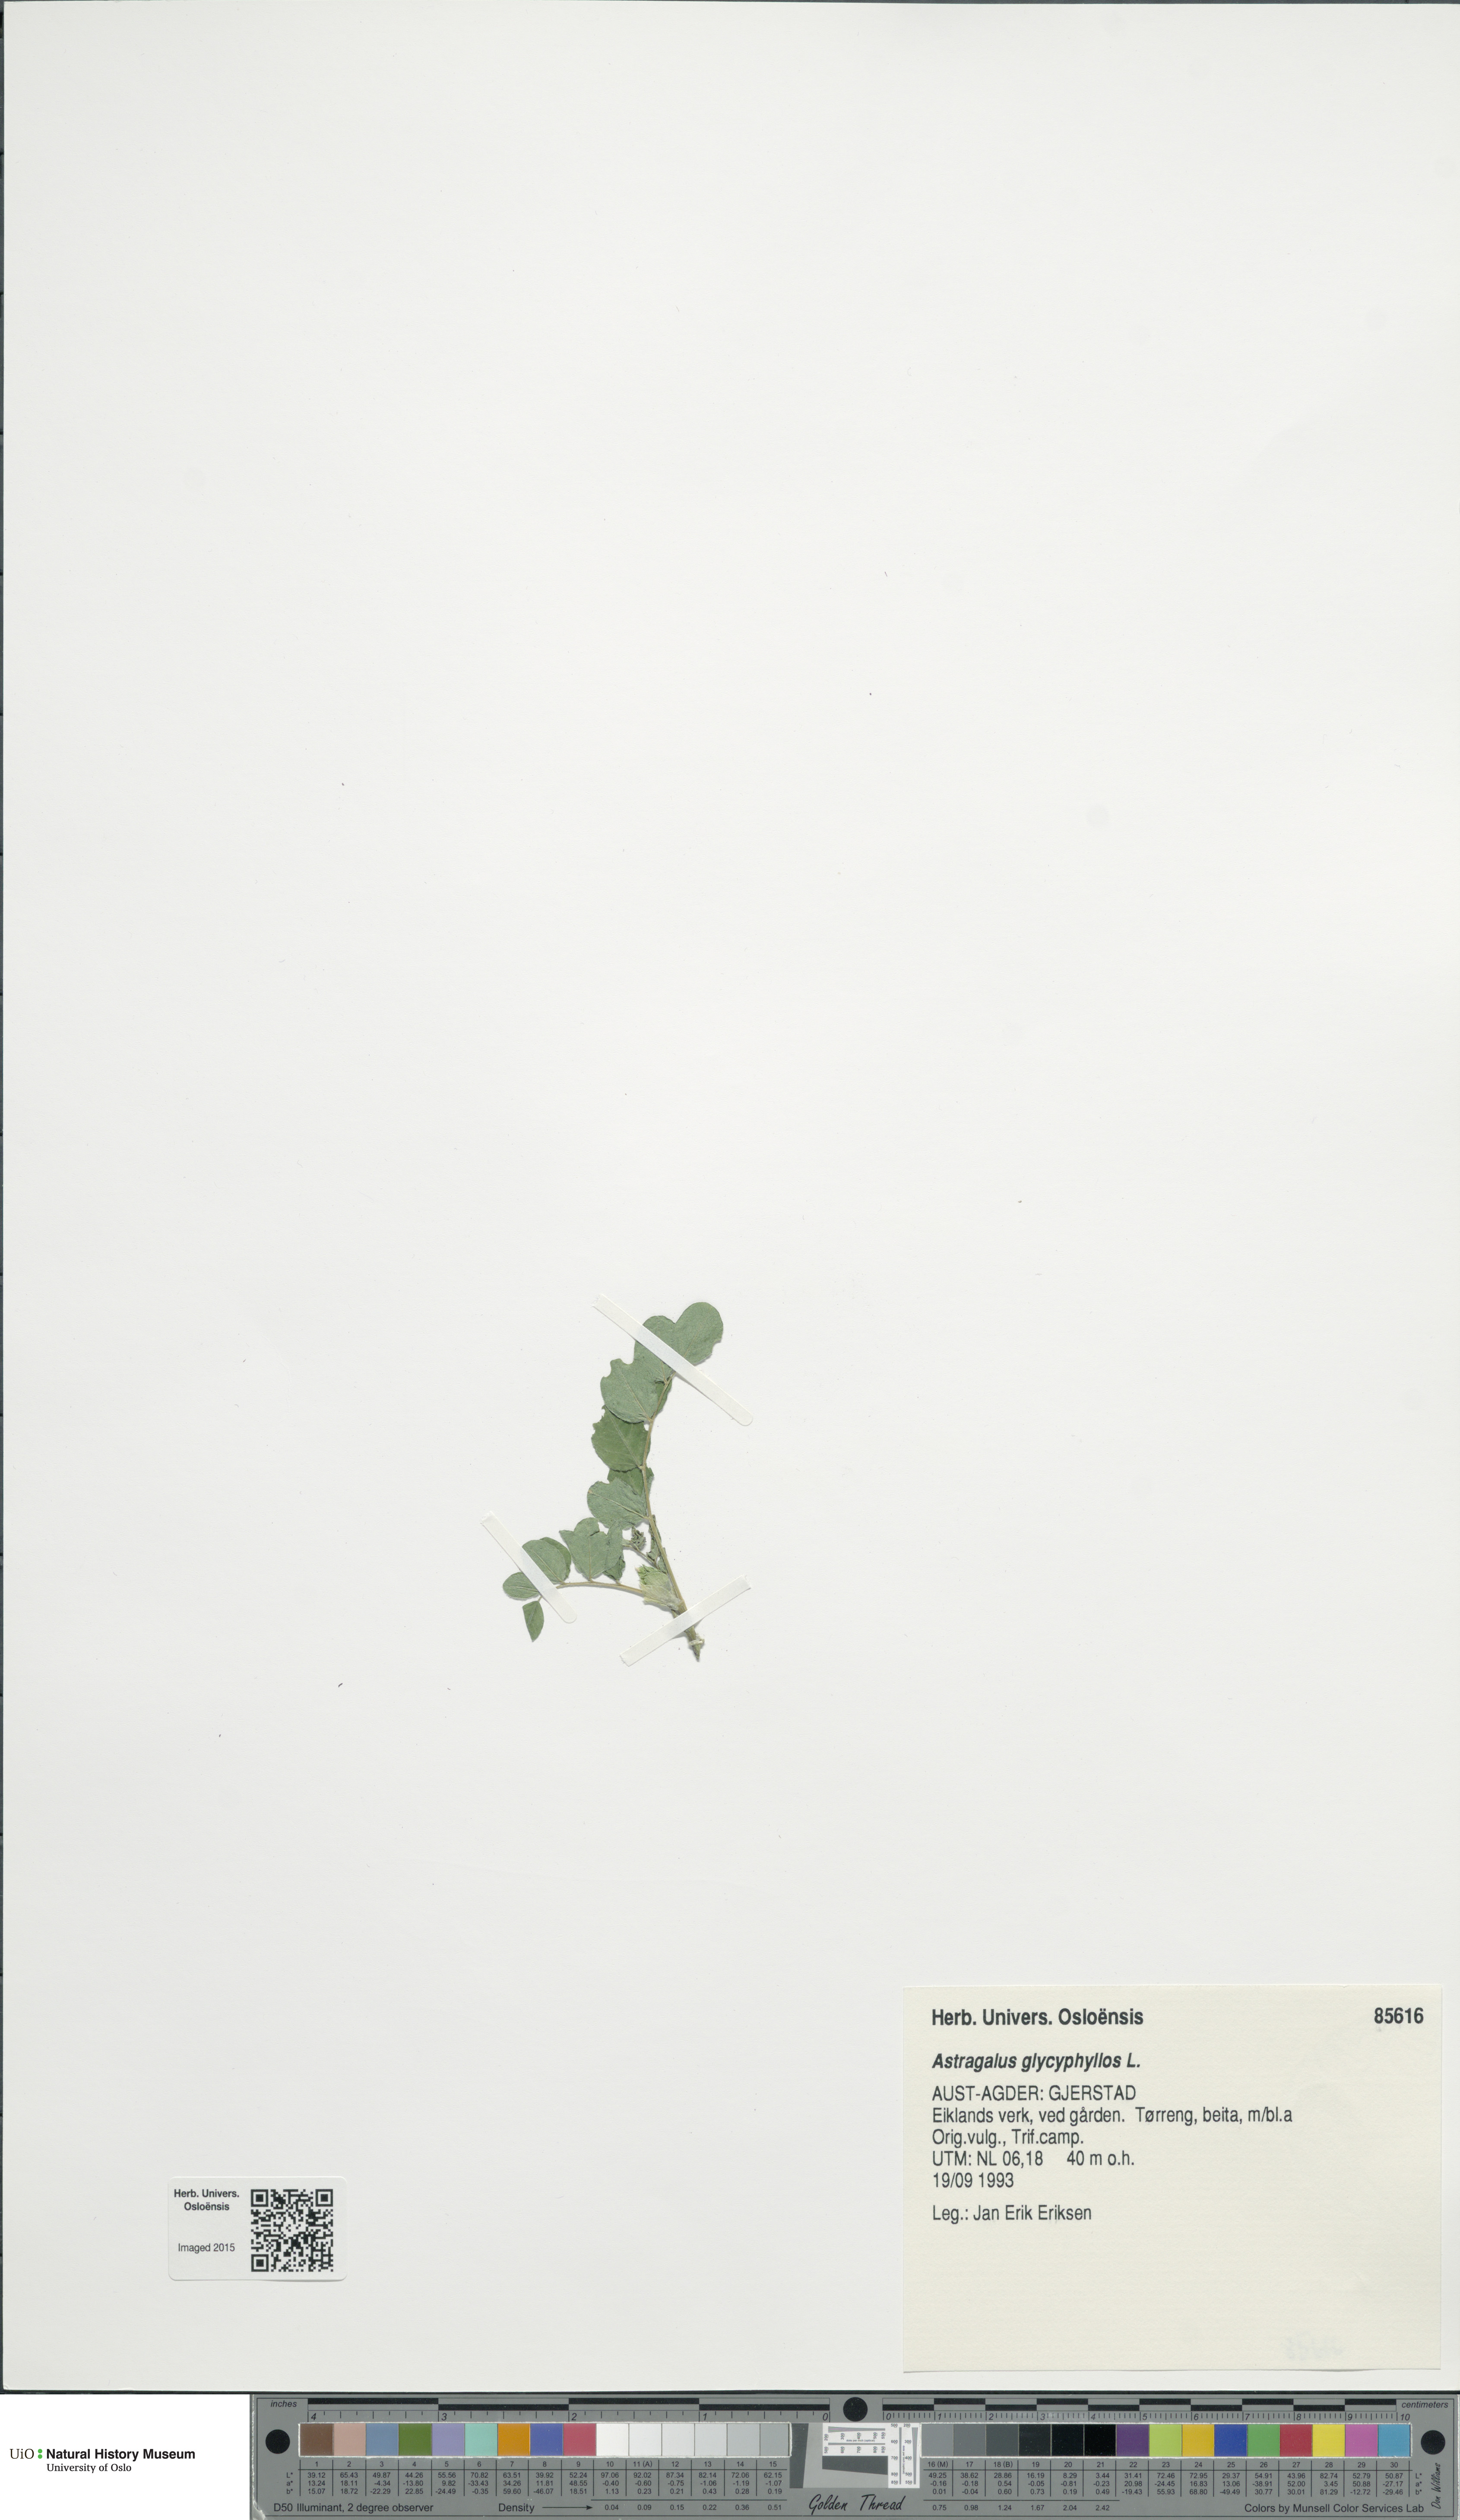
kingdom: Plantae
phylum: Tracheophyta
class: Magnoliopsida
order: Fabales
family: Fabaceae
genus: Astragalus
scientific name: Astragalus glycyphyllos
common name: Wild liquorice
